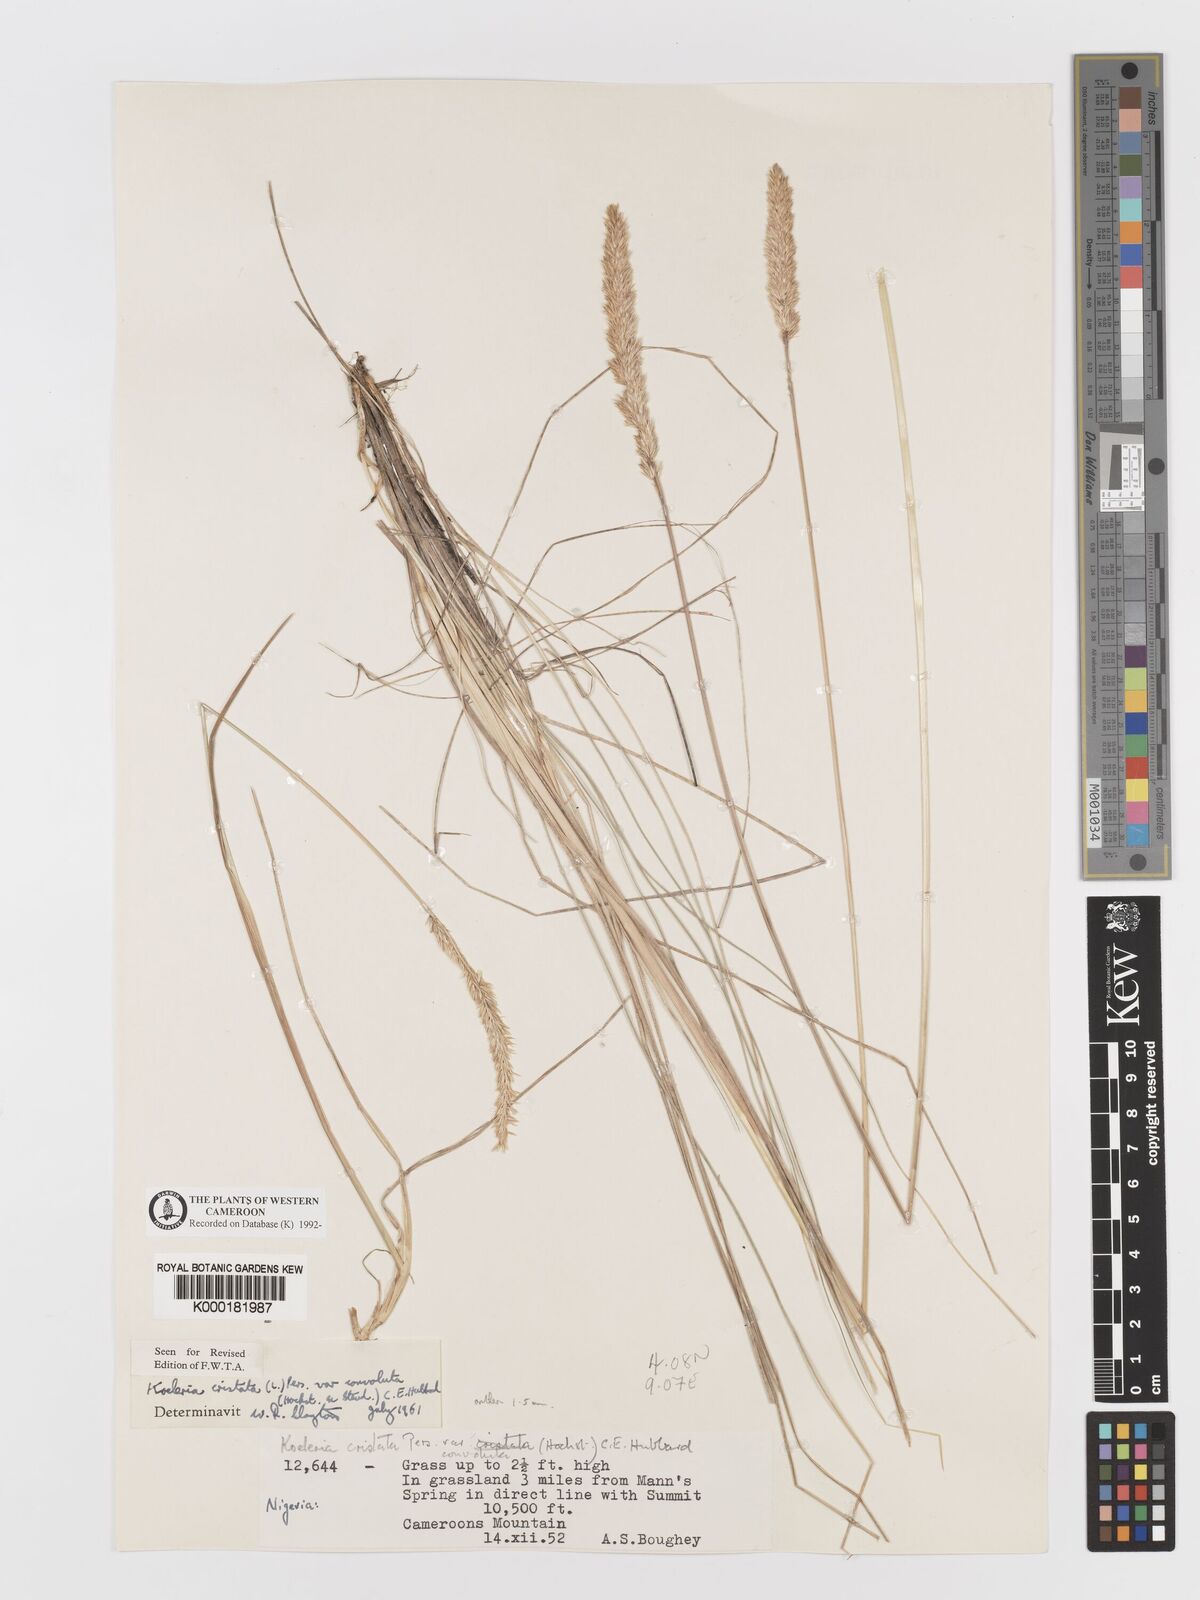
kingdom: Plantae
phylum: Tracheophyta
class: Liliopsida
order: Poales
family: Poaceae
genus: Koeleria
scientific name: Koeleria capensis
